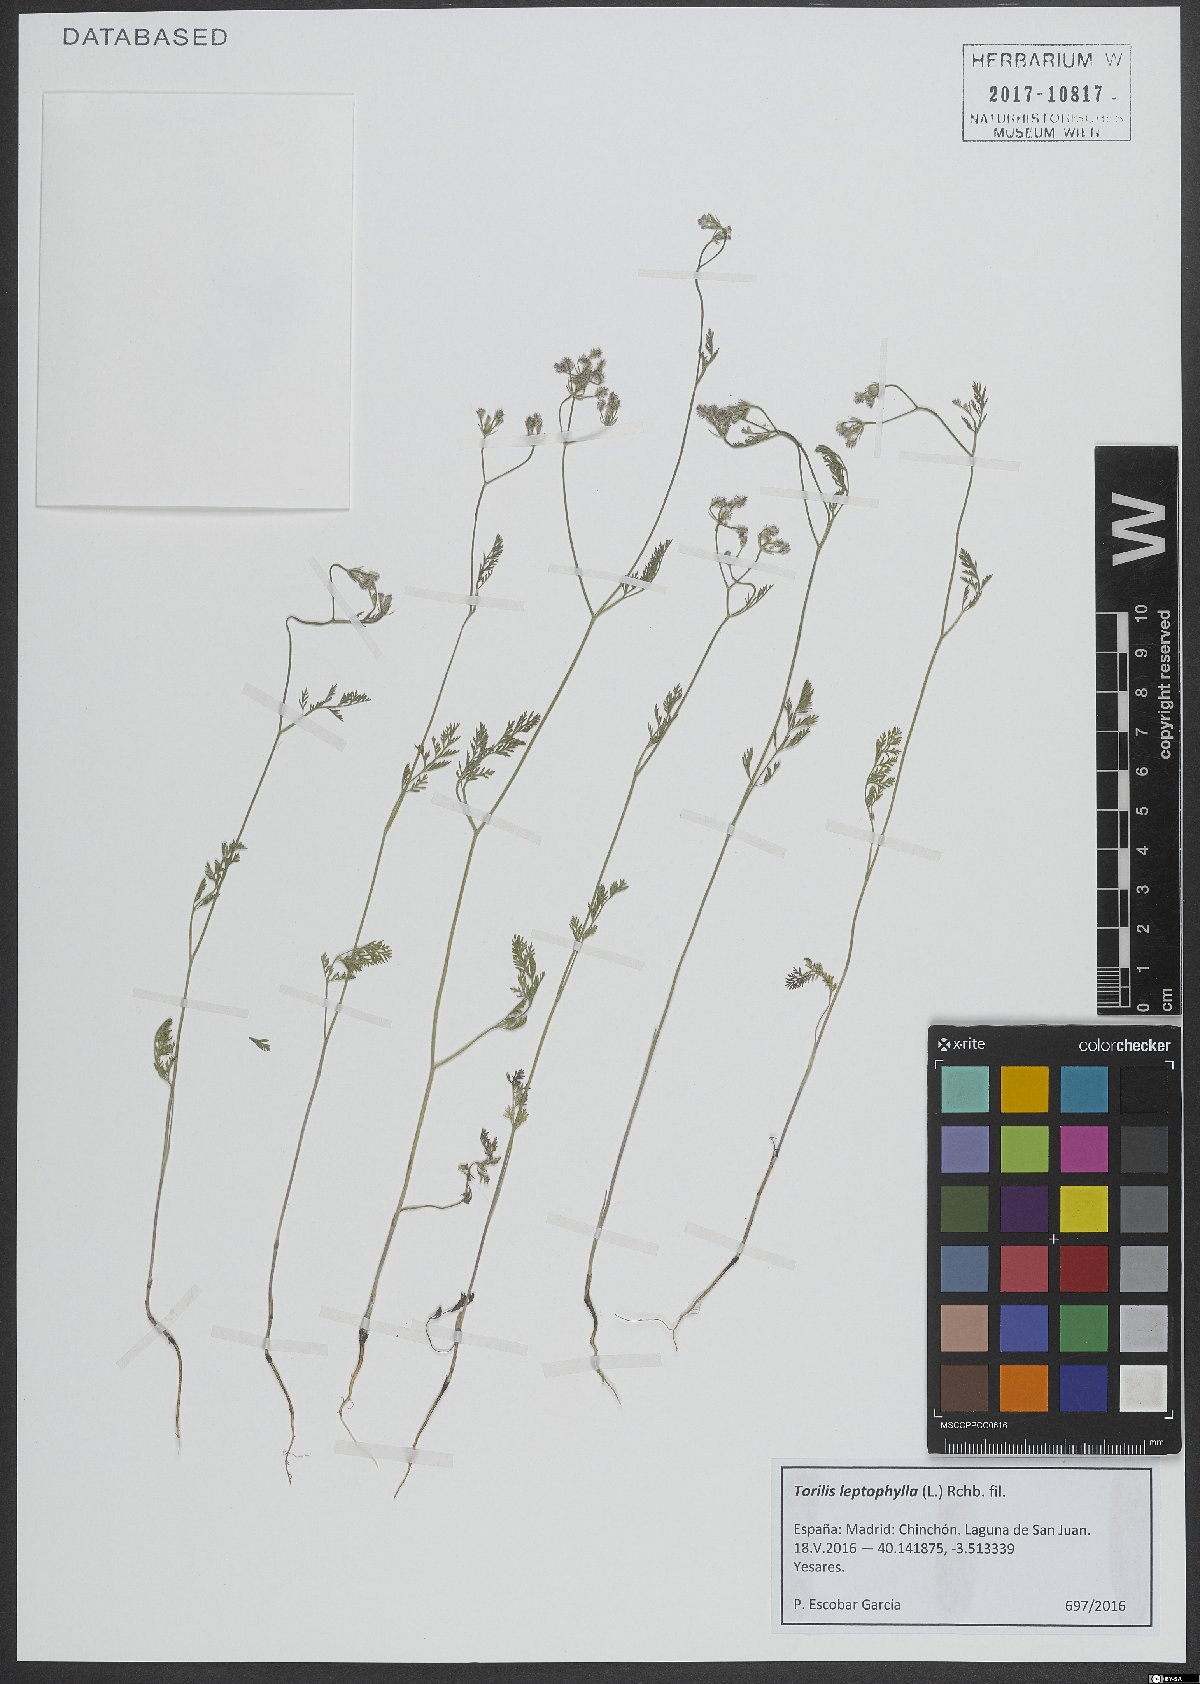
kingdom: Plantae
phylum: Tracheophyta
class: Magnoliopsida
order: Apiales
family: Apiaceae
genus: Torilis
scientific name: Torilis leptophylla
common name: Bristlefruit hedgeparsley
